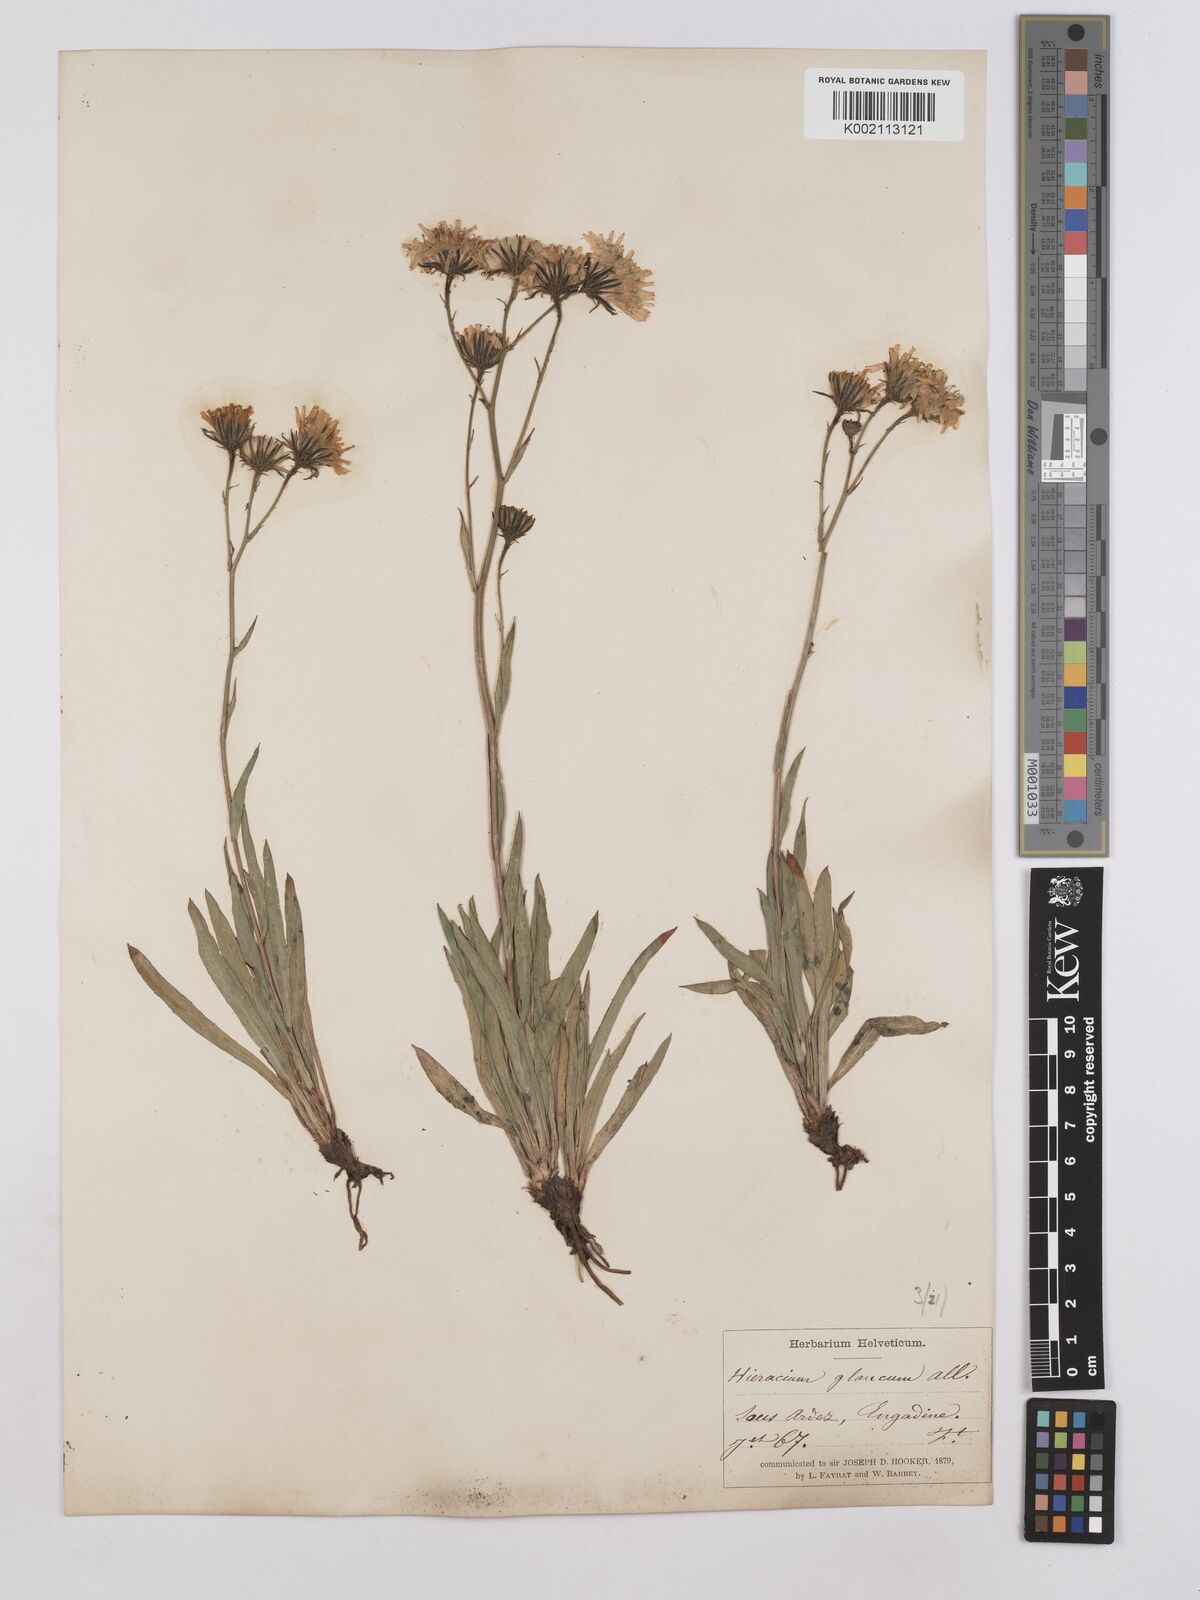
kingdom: Plantae
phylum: Tracheophyta
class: Magnoliopsida
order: Asterales
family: Asteraceae
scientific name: Asteraceae
